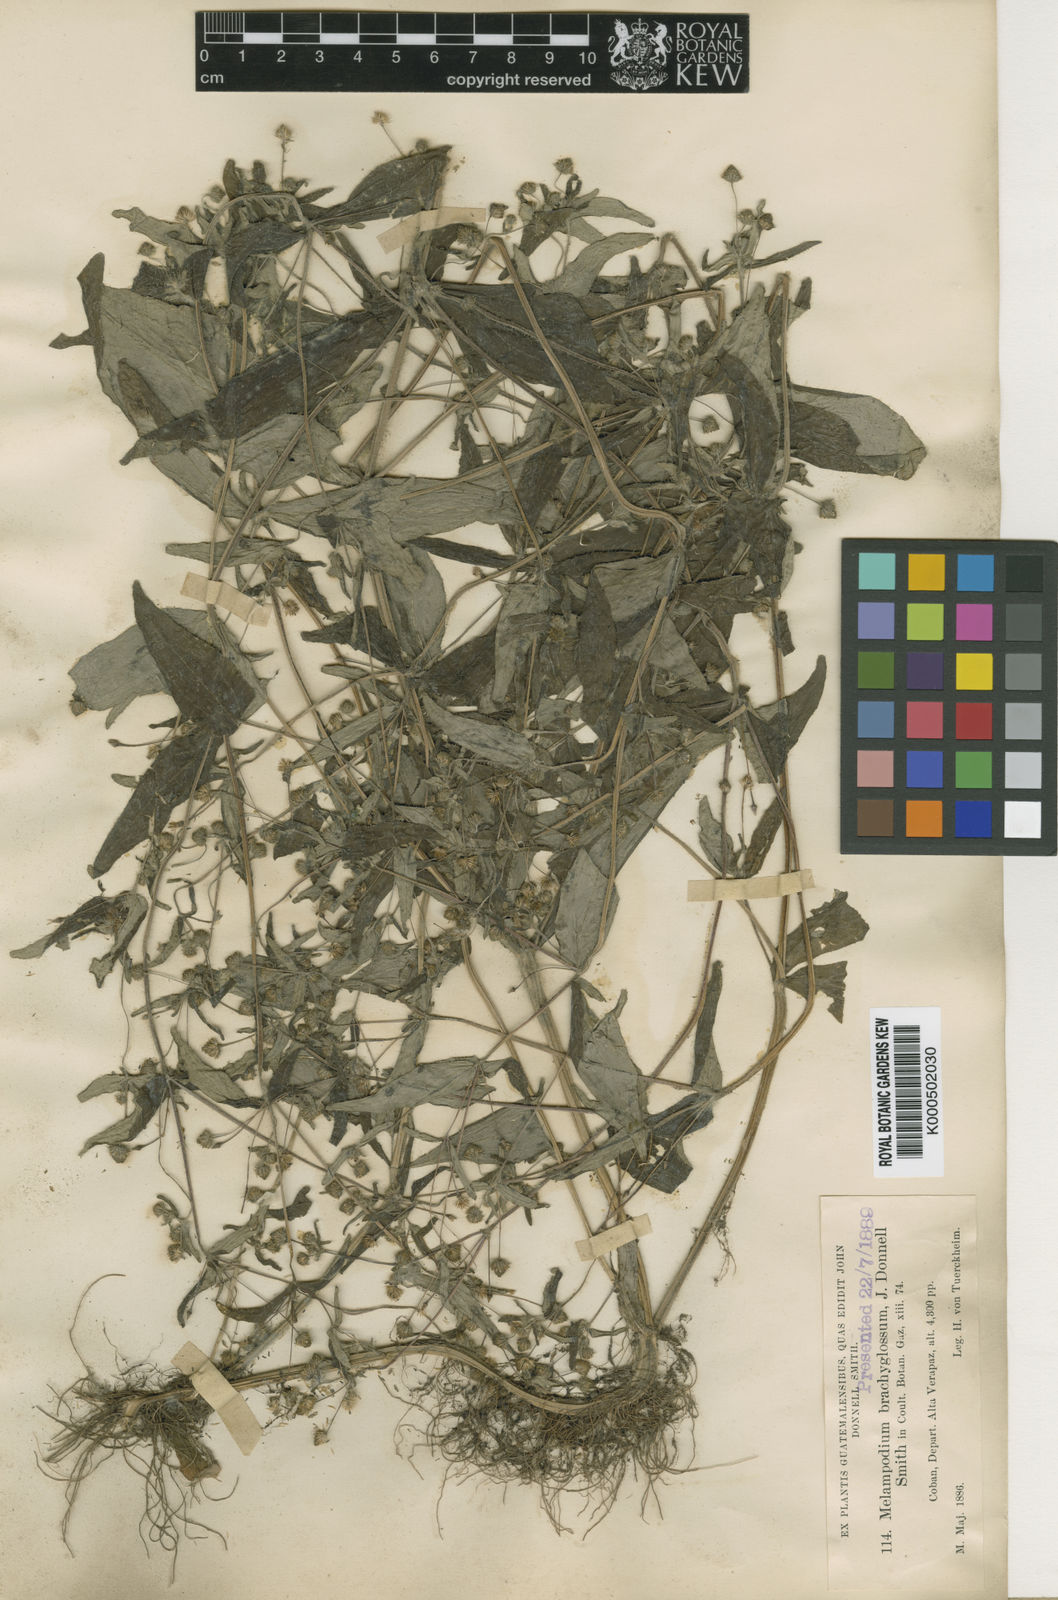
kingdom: Plantae
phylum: Tracheophyta
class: Magnoliopsida
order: Asterales
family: Asteraceae
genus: Melampodium
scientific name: Melampodium paniculatum
